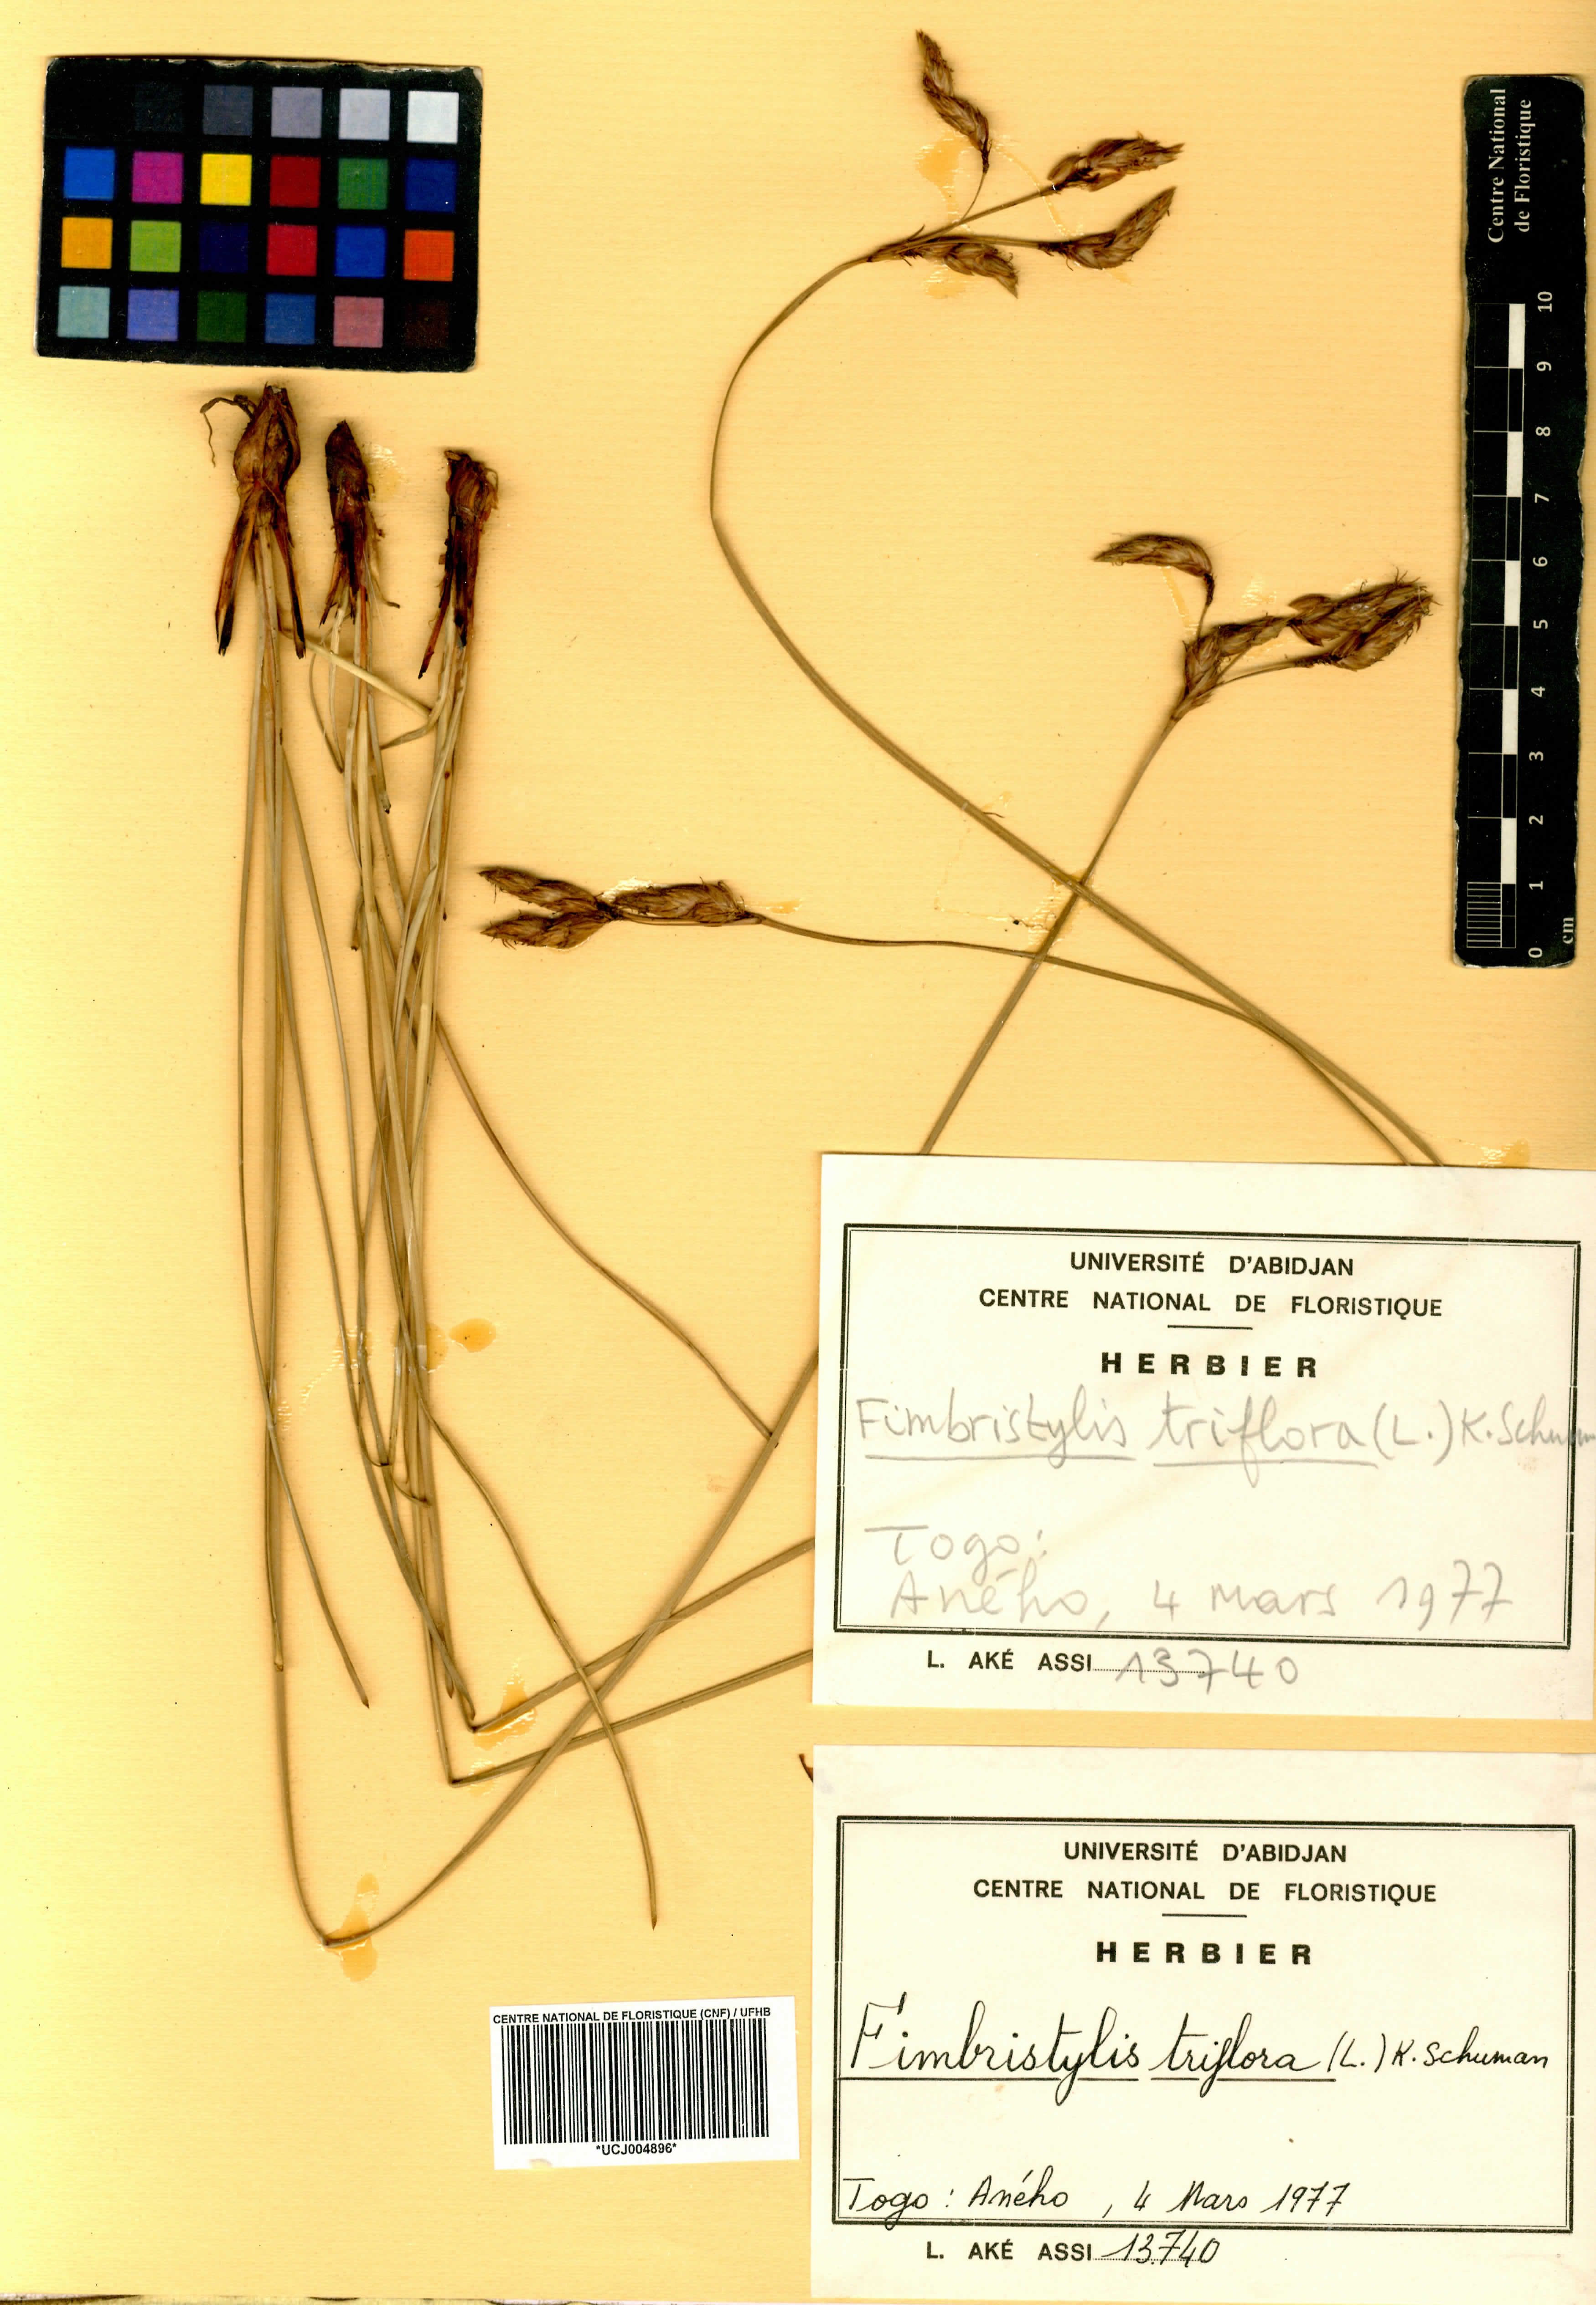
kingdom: Plantae
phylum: Tracheophyta
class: Liliopsida
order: Poales
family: Cyperaceae
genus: Abildgaardia
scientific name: Abildgaardia triflora
